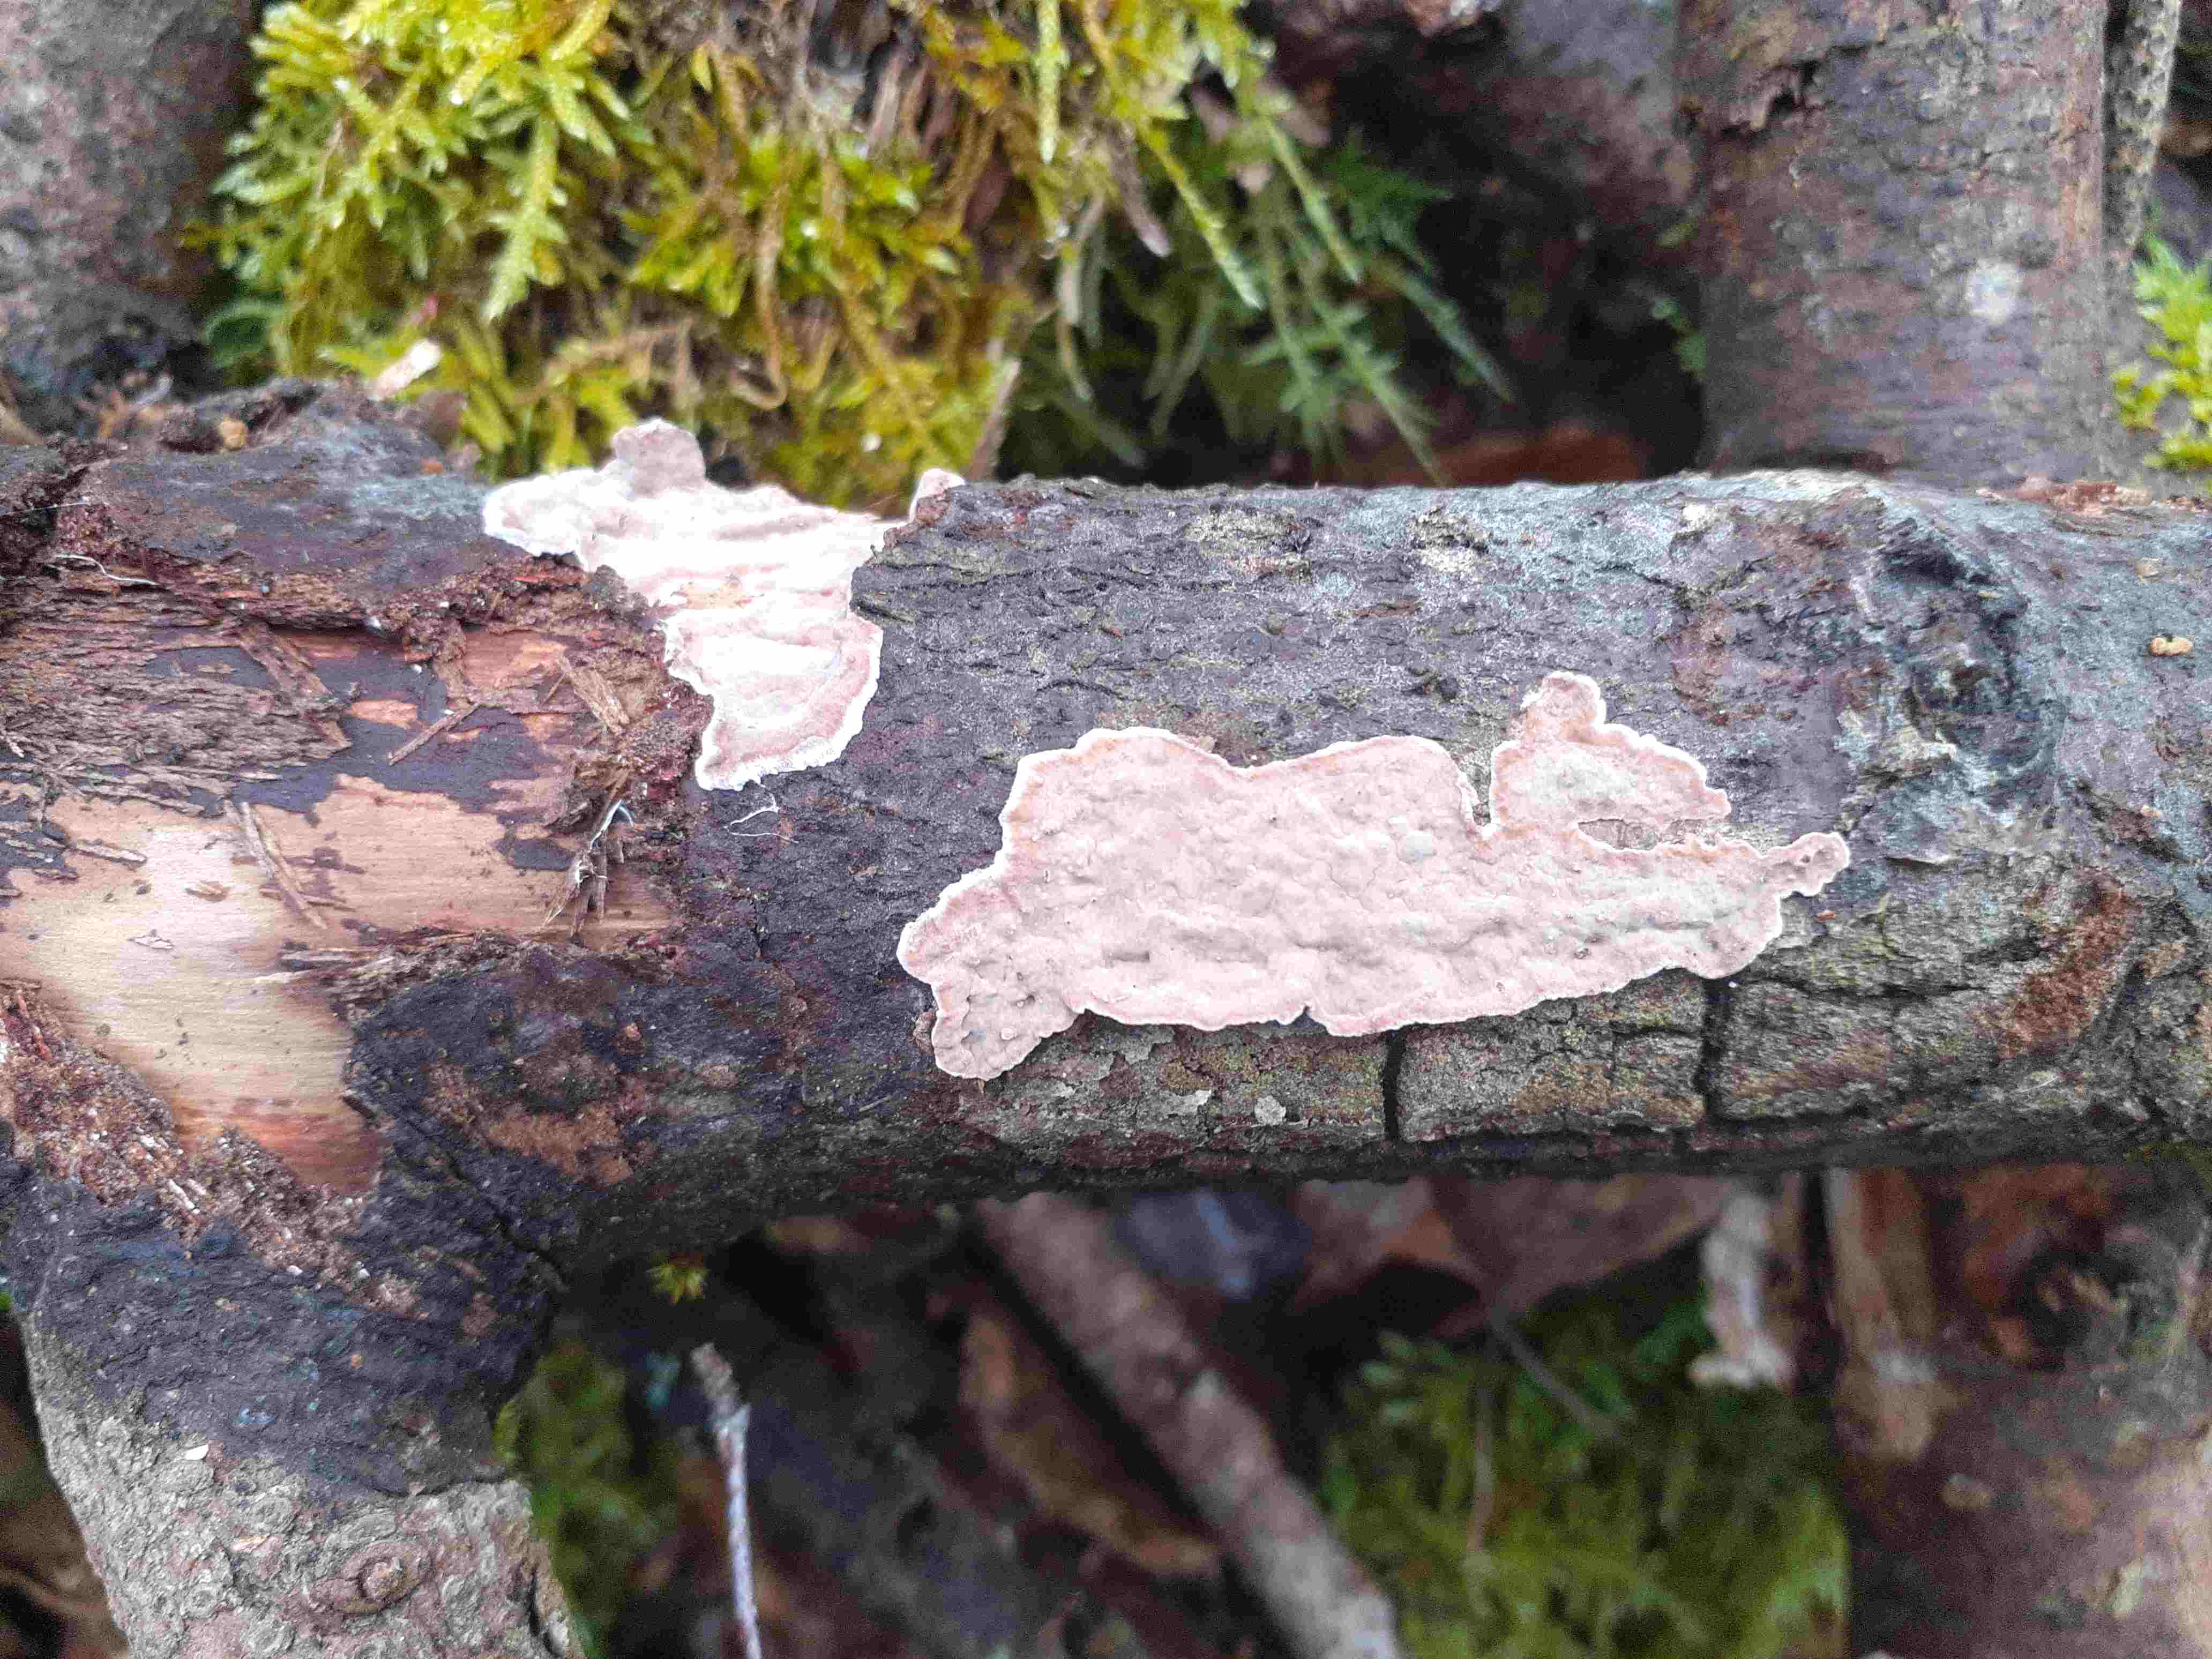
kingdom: Fungi
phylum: Basidiomycota
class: Agaricomycetes
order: Russulales
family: Echinodontiaceae
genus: Amylostereum
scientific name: Amylostereum chailletii
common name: gran-lædersvamp
